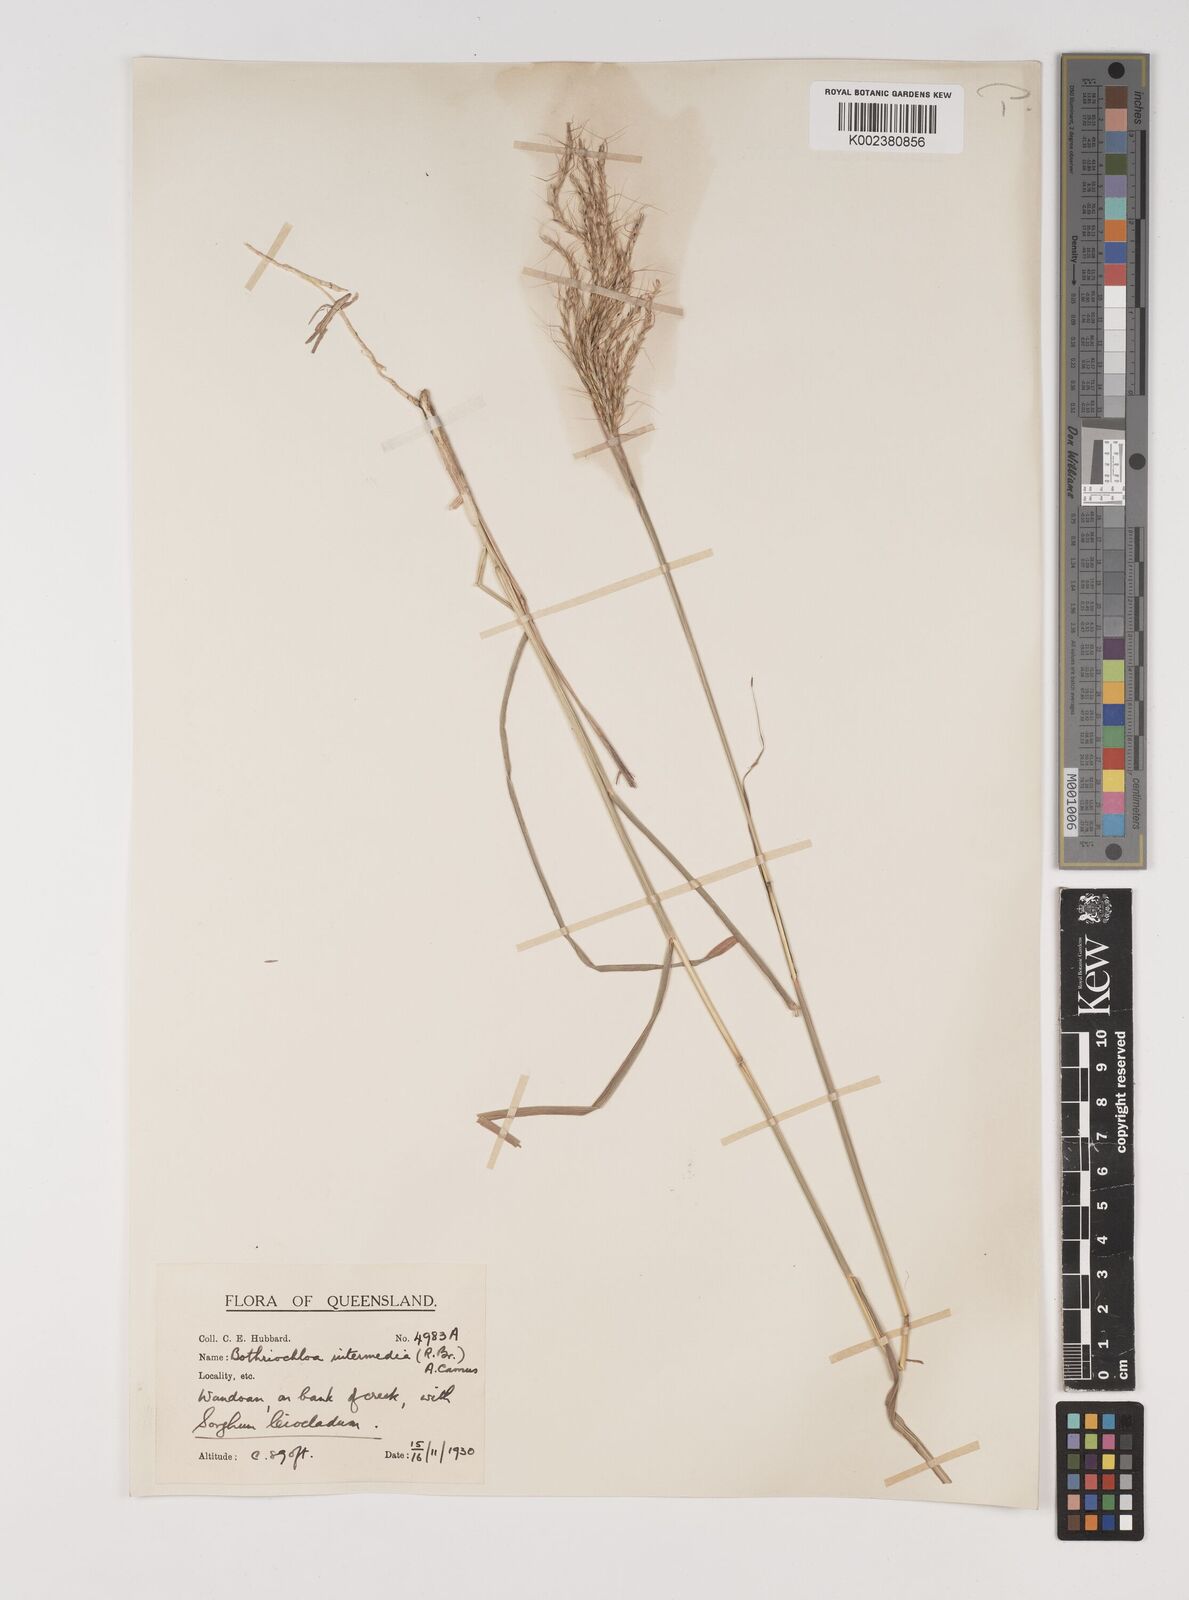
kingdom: Plantae
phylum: Tracheophyta
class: Liliopsida
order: Poales
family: Poaceae
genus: Bothriochloa
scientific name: Bothriochloa bladhii
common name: Caucasian bluestem
